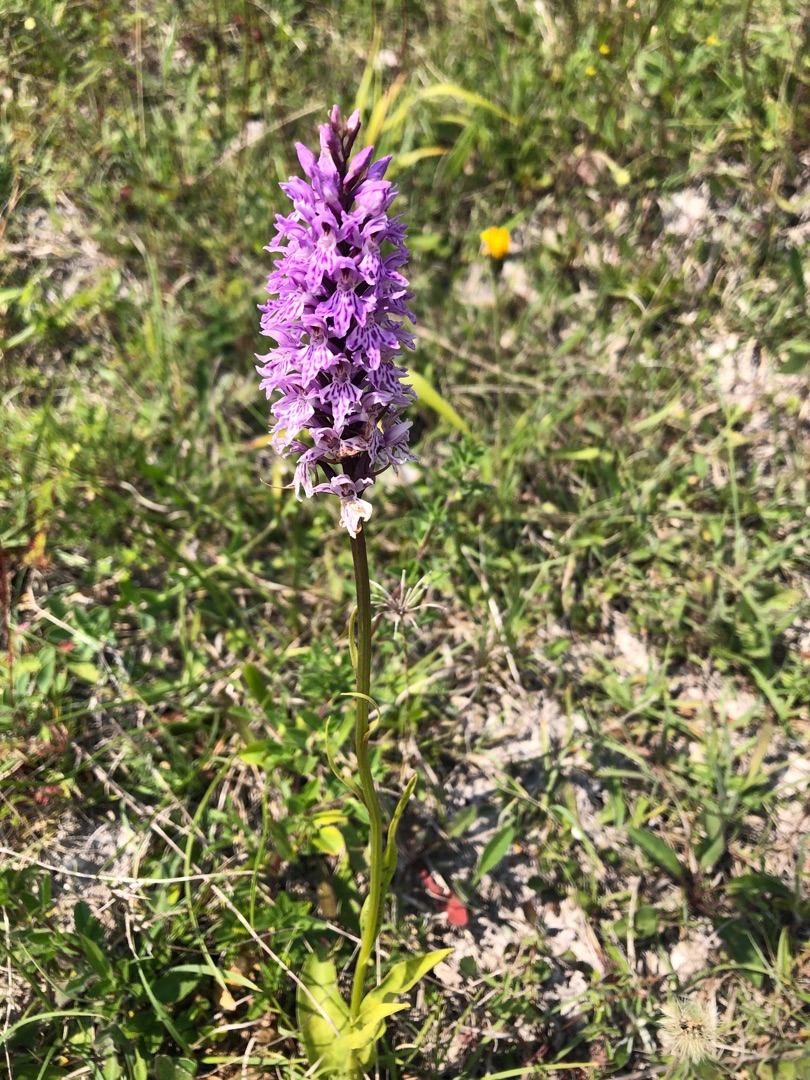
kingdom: Plantae
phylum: Tracheophyta
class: Liliopsida
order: Asparagales
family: Orchidaceae
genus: Dactylorhiza
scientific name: Dactylorhiza maculata
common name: Skov-gøgeurt
